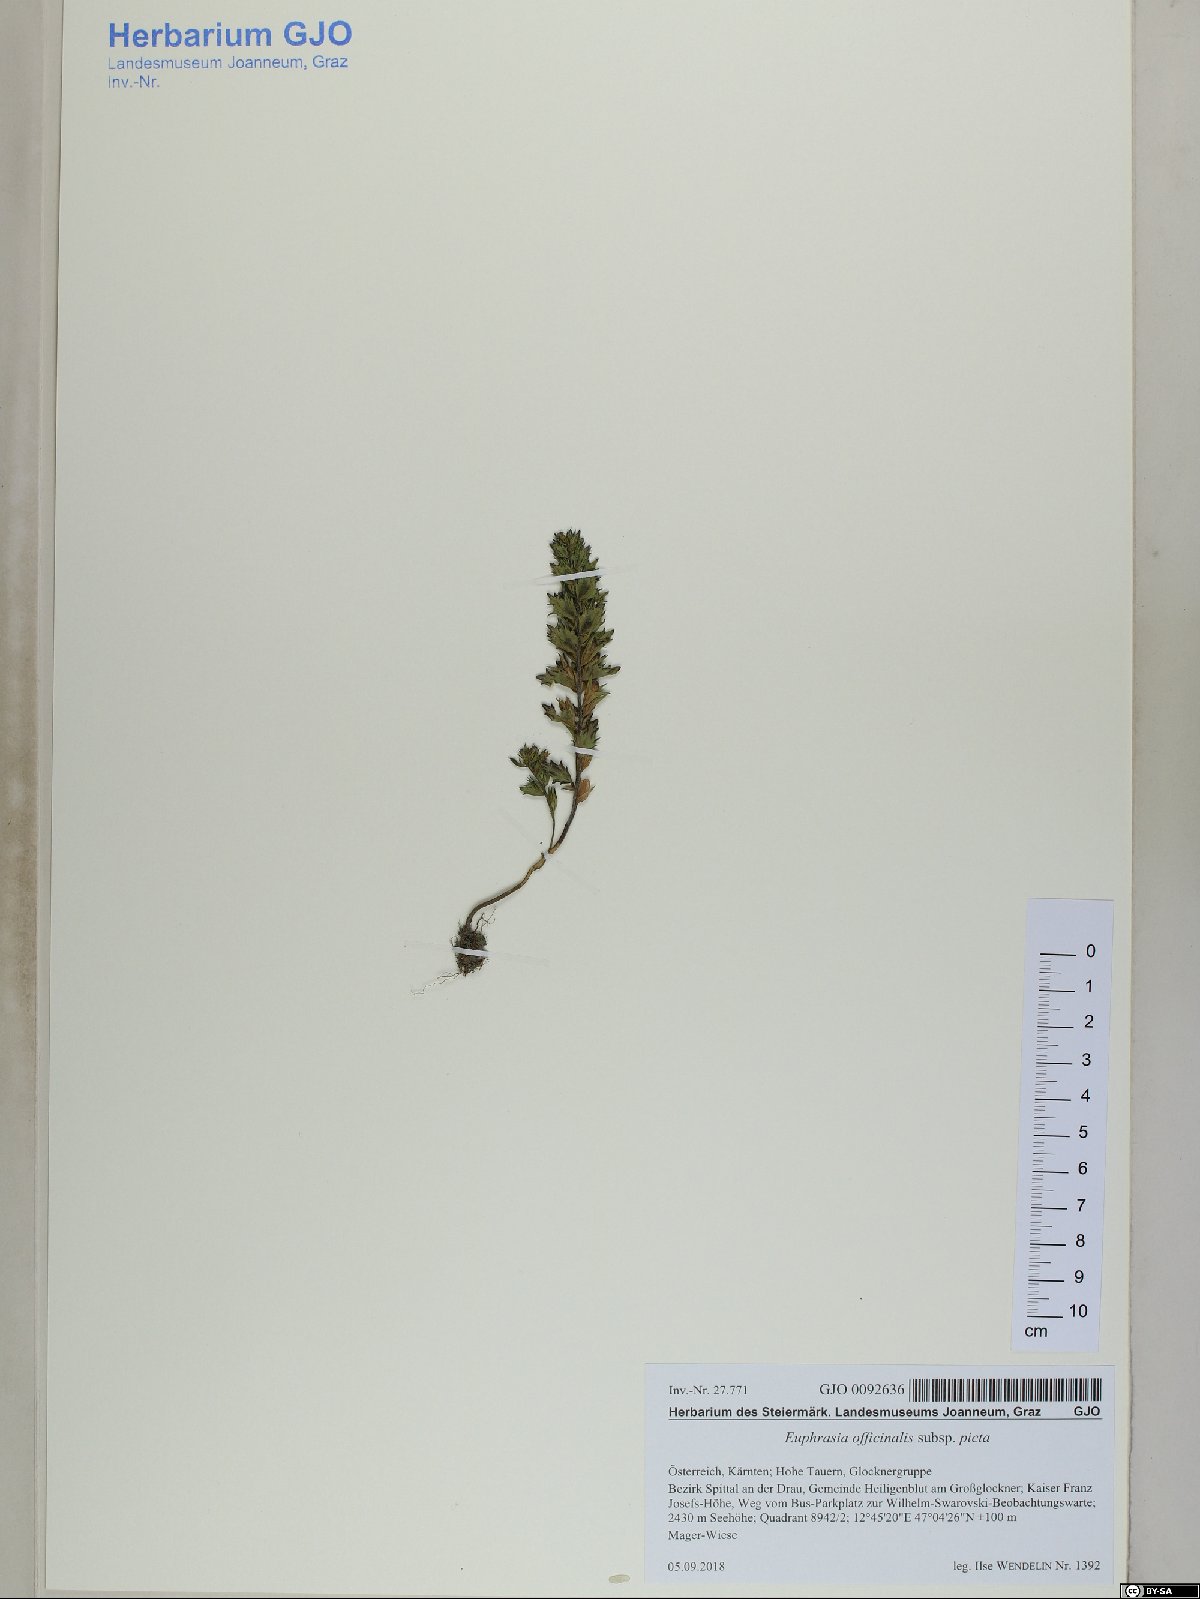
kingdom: Plantae
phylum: Tracheophyta
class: Magnoliopsida
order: Lamiales
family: Orobanchaceae
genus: Euphrasia
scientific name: Euphrasia officinalis
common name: Eyebright
